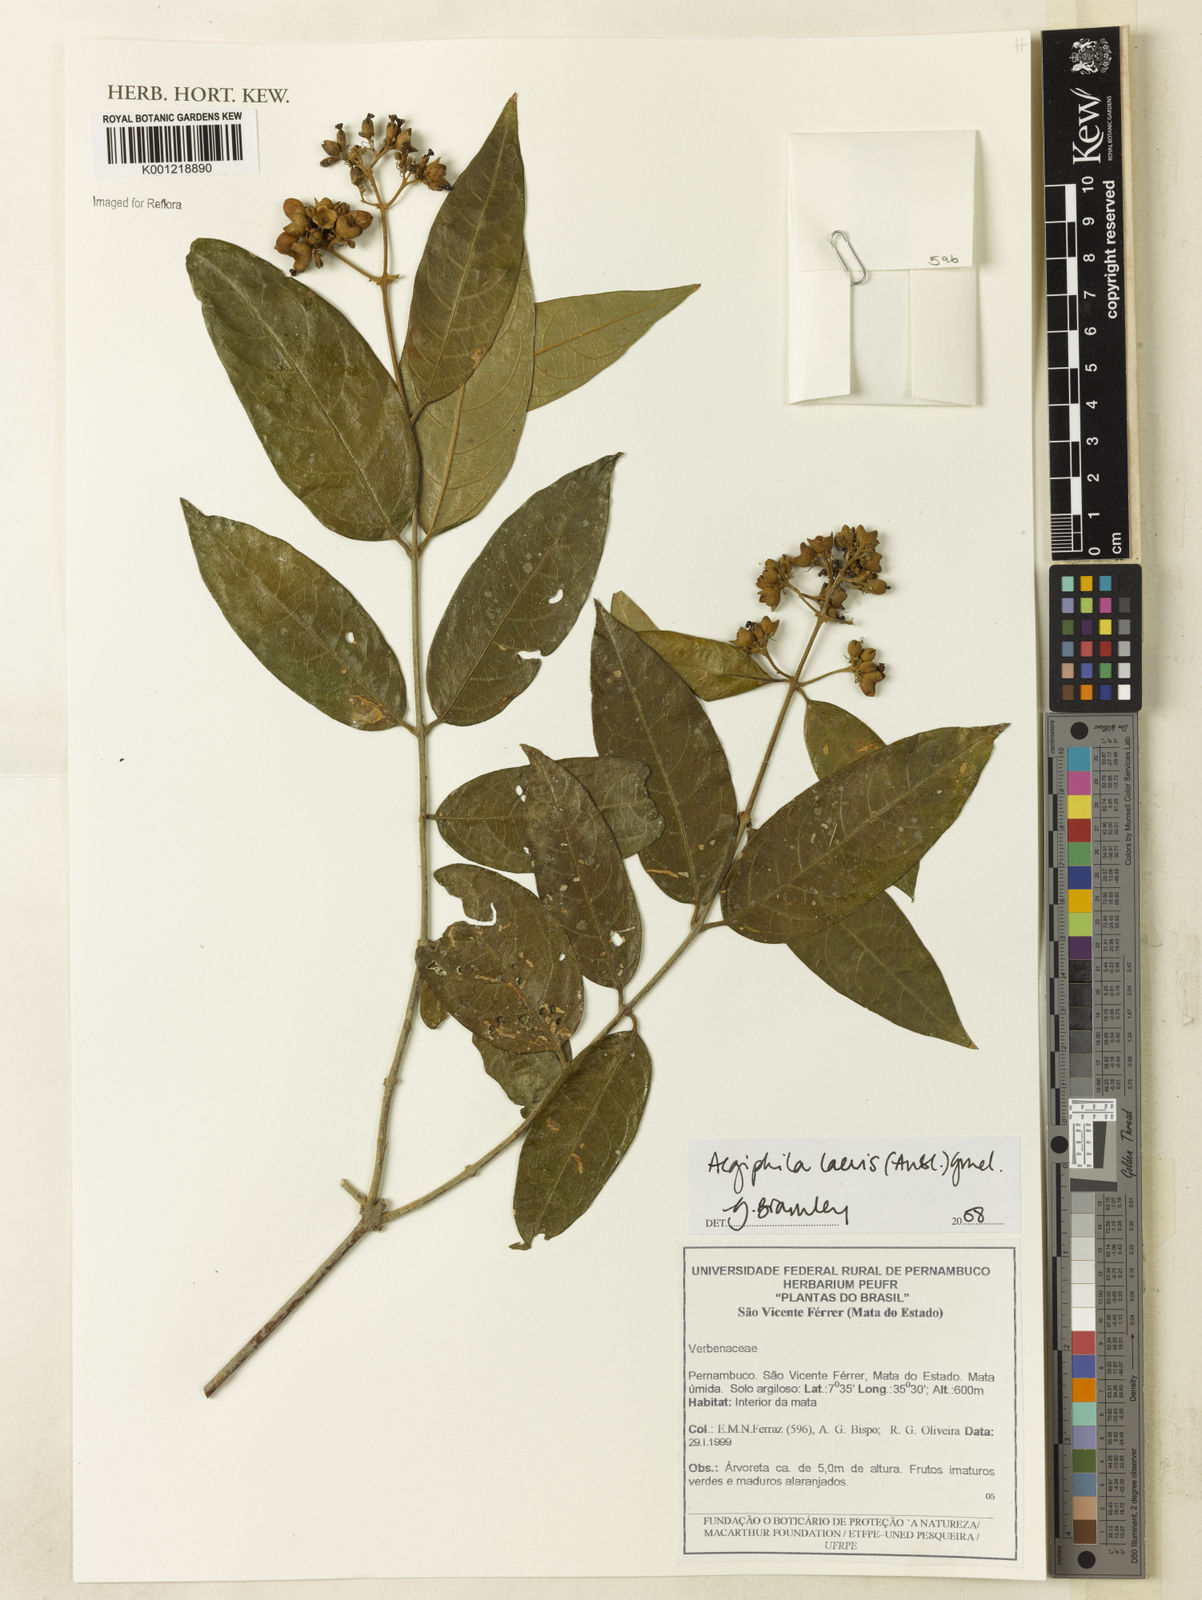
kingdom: Plantae
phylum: Tracheophyta
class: Magnoliopsida
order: Lamiales
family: Lamiaceae
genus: Aegiphila
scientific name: Aegiphila laevis
